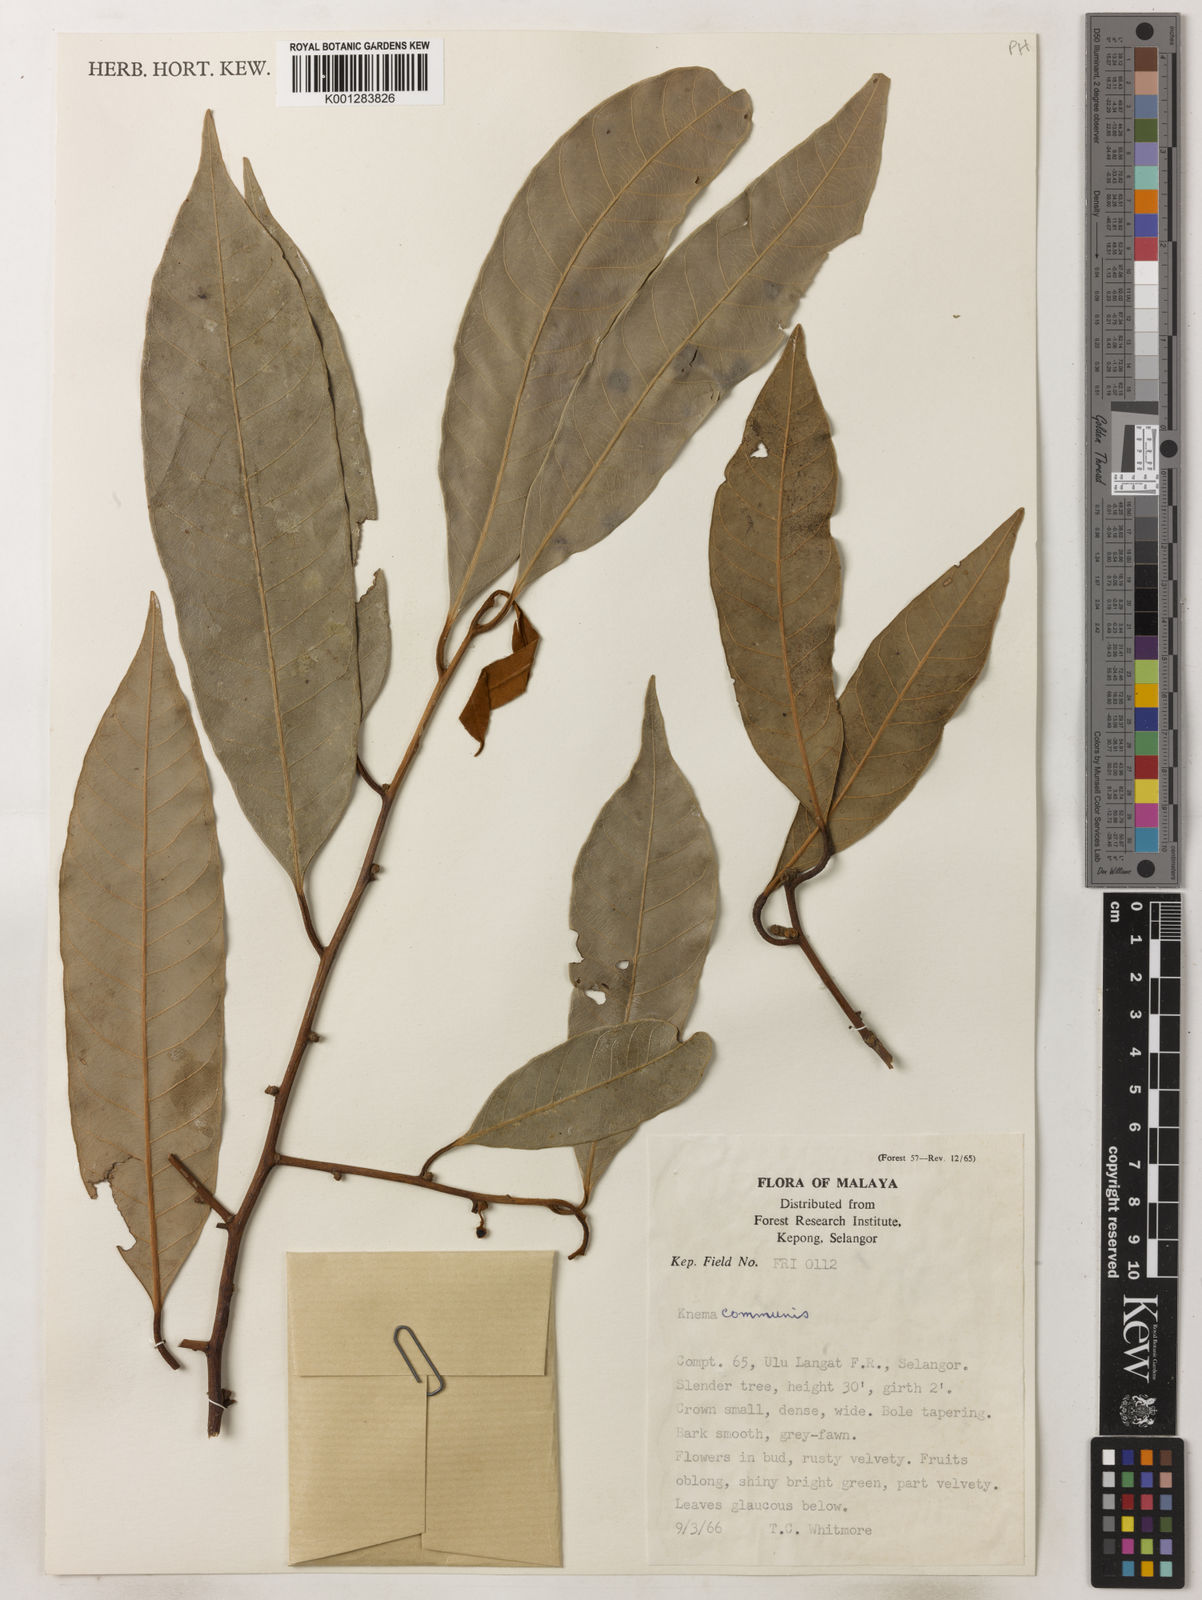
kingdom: Plantae
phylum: Tracheophyta
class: Magnoliopsida
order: Magnoliales
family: Myristicaceae
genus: Knema
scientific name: Knema communis
